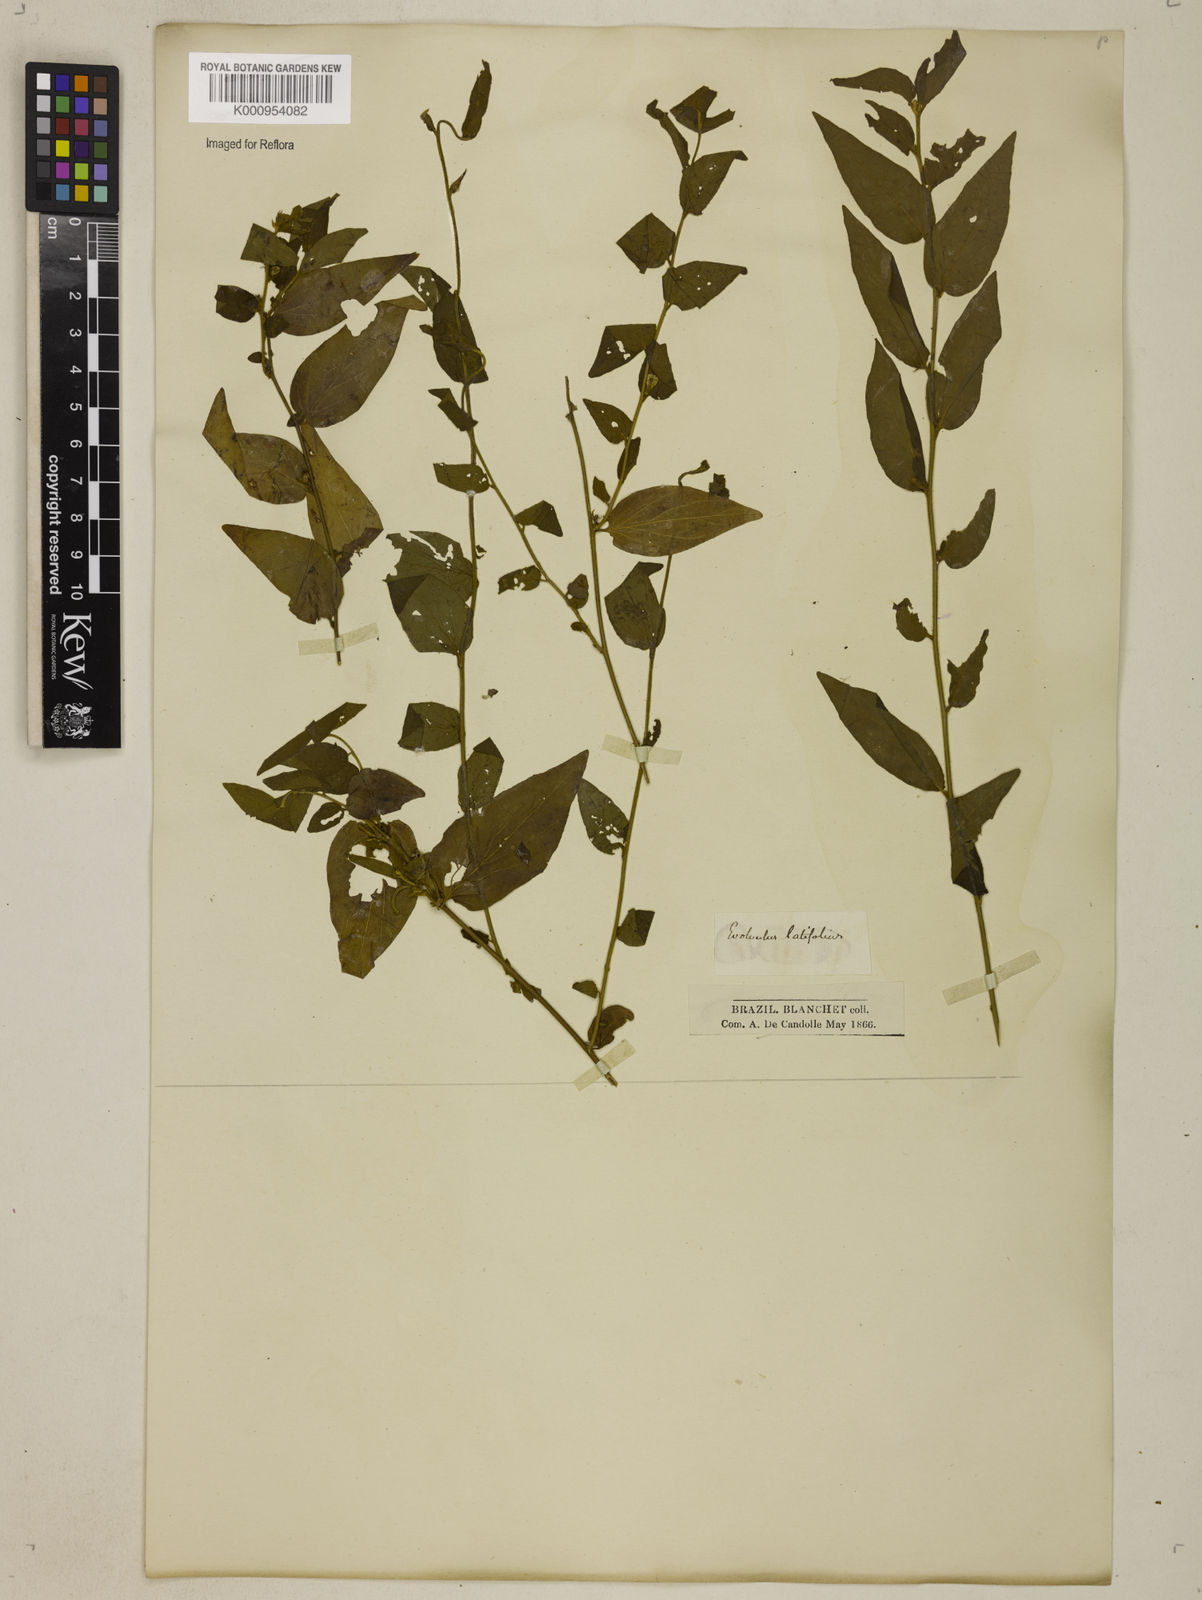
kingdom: Plantae
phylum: Tracheophyta
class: Magnoliopsida
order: Solanales
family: Convolvulaceae
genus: Evolvulus
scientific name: Evolvulus latifolius
